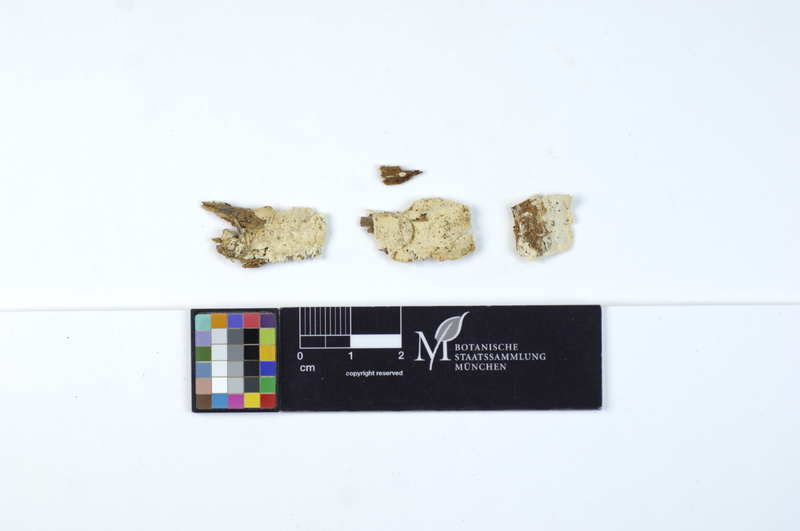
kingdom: Fungi
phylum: Basidiomycota
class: Agaricomycetes
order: Polyporales
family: Dacryobolaceae
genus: Oligoporus
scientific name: Oligoporus rennyi
